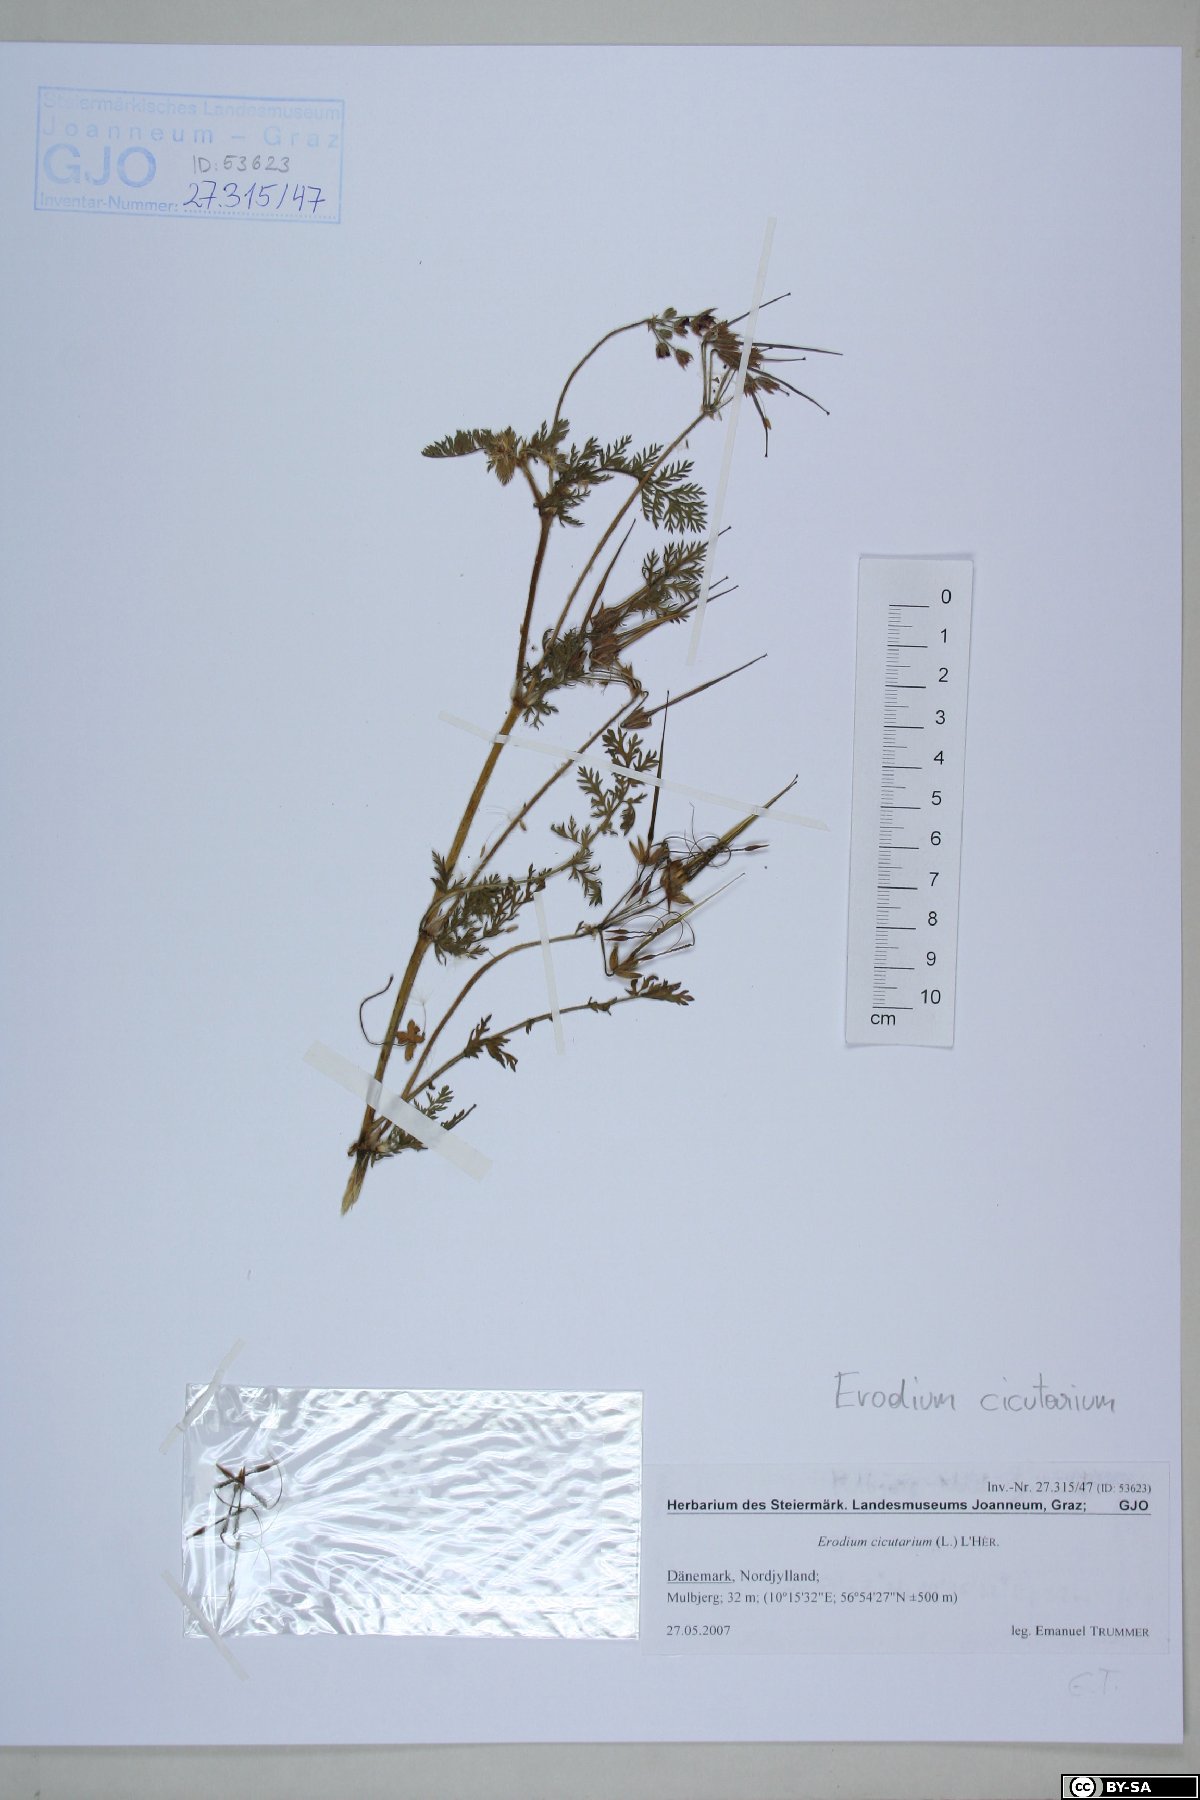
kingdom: Plantae
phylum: Tracheophyta
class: Magnoliopsida
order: Geraniales
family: Geraniaceae
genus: Erodium
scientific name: Erodium cicutarium
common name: Common stork's-bill
